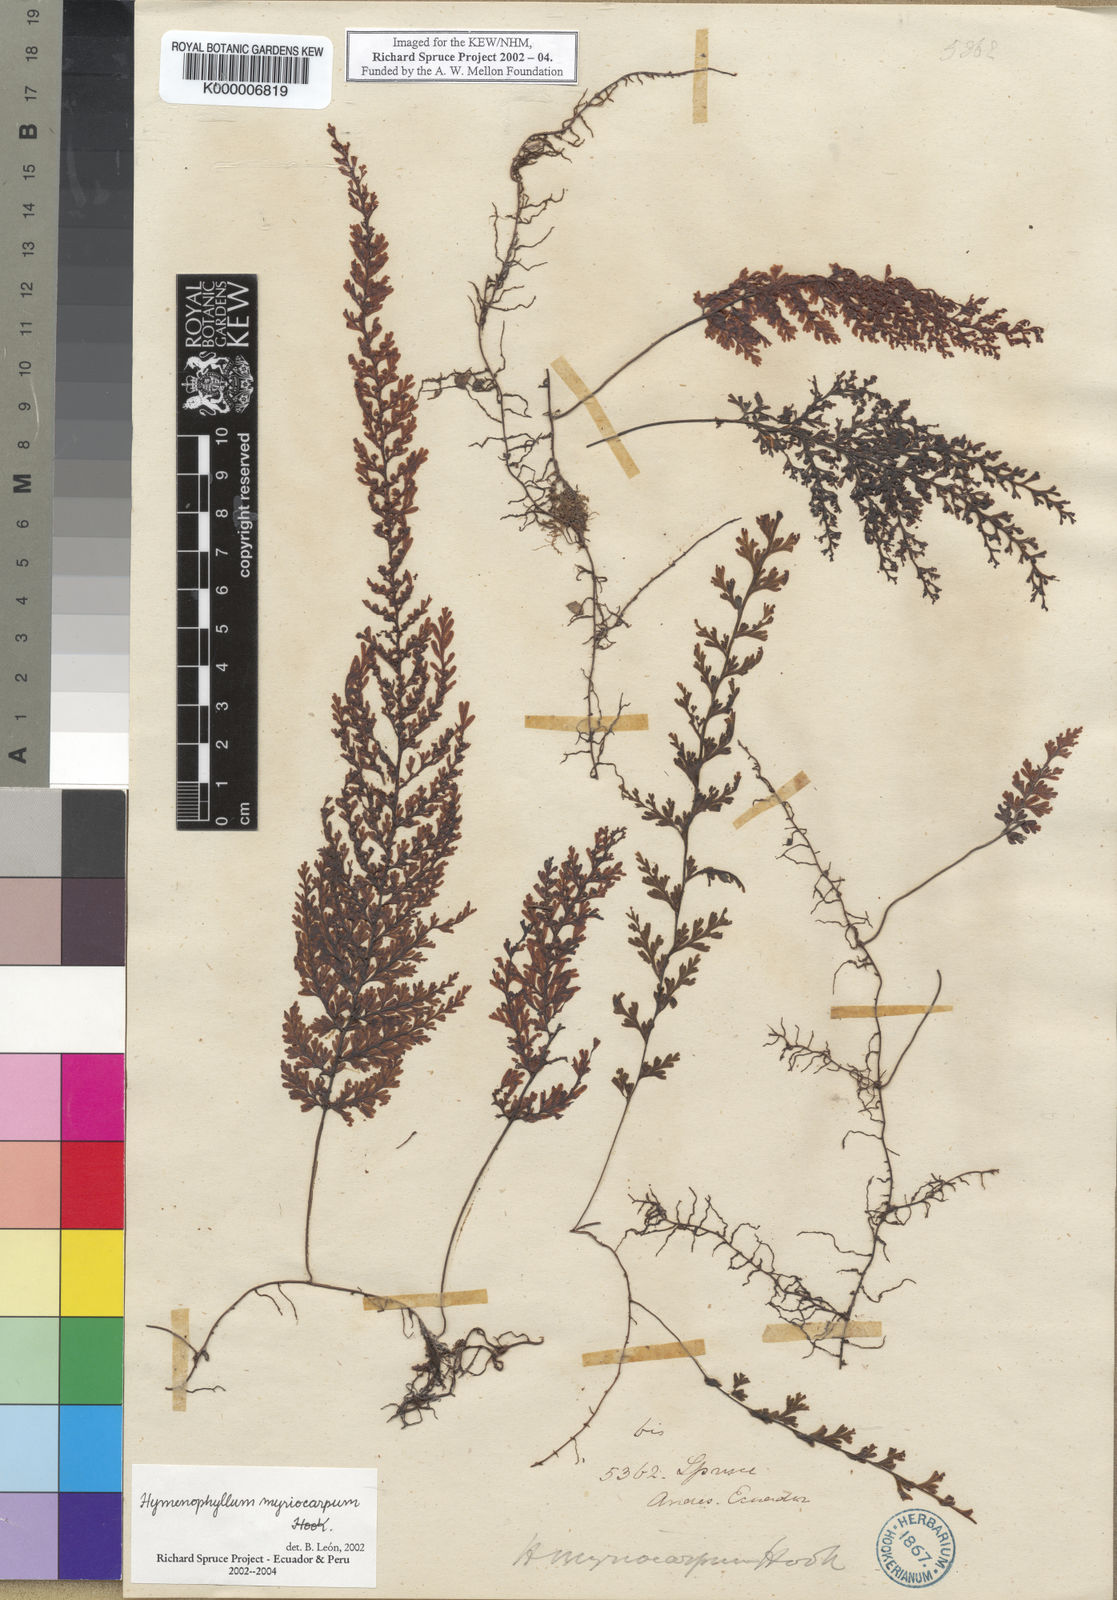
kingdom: Plantae
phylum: Tracheophyta
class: Polypodiopsida
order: Hymenophyllales
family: Hymenophyllaceae
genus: Hymenophyllum
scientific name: Hymenophyllum myriocarpum
